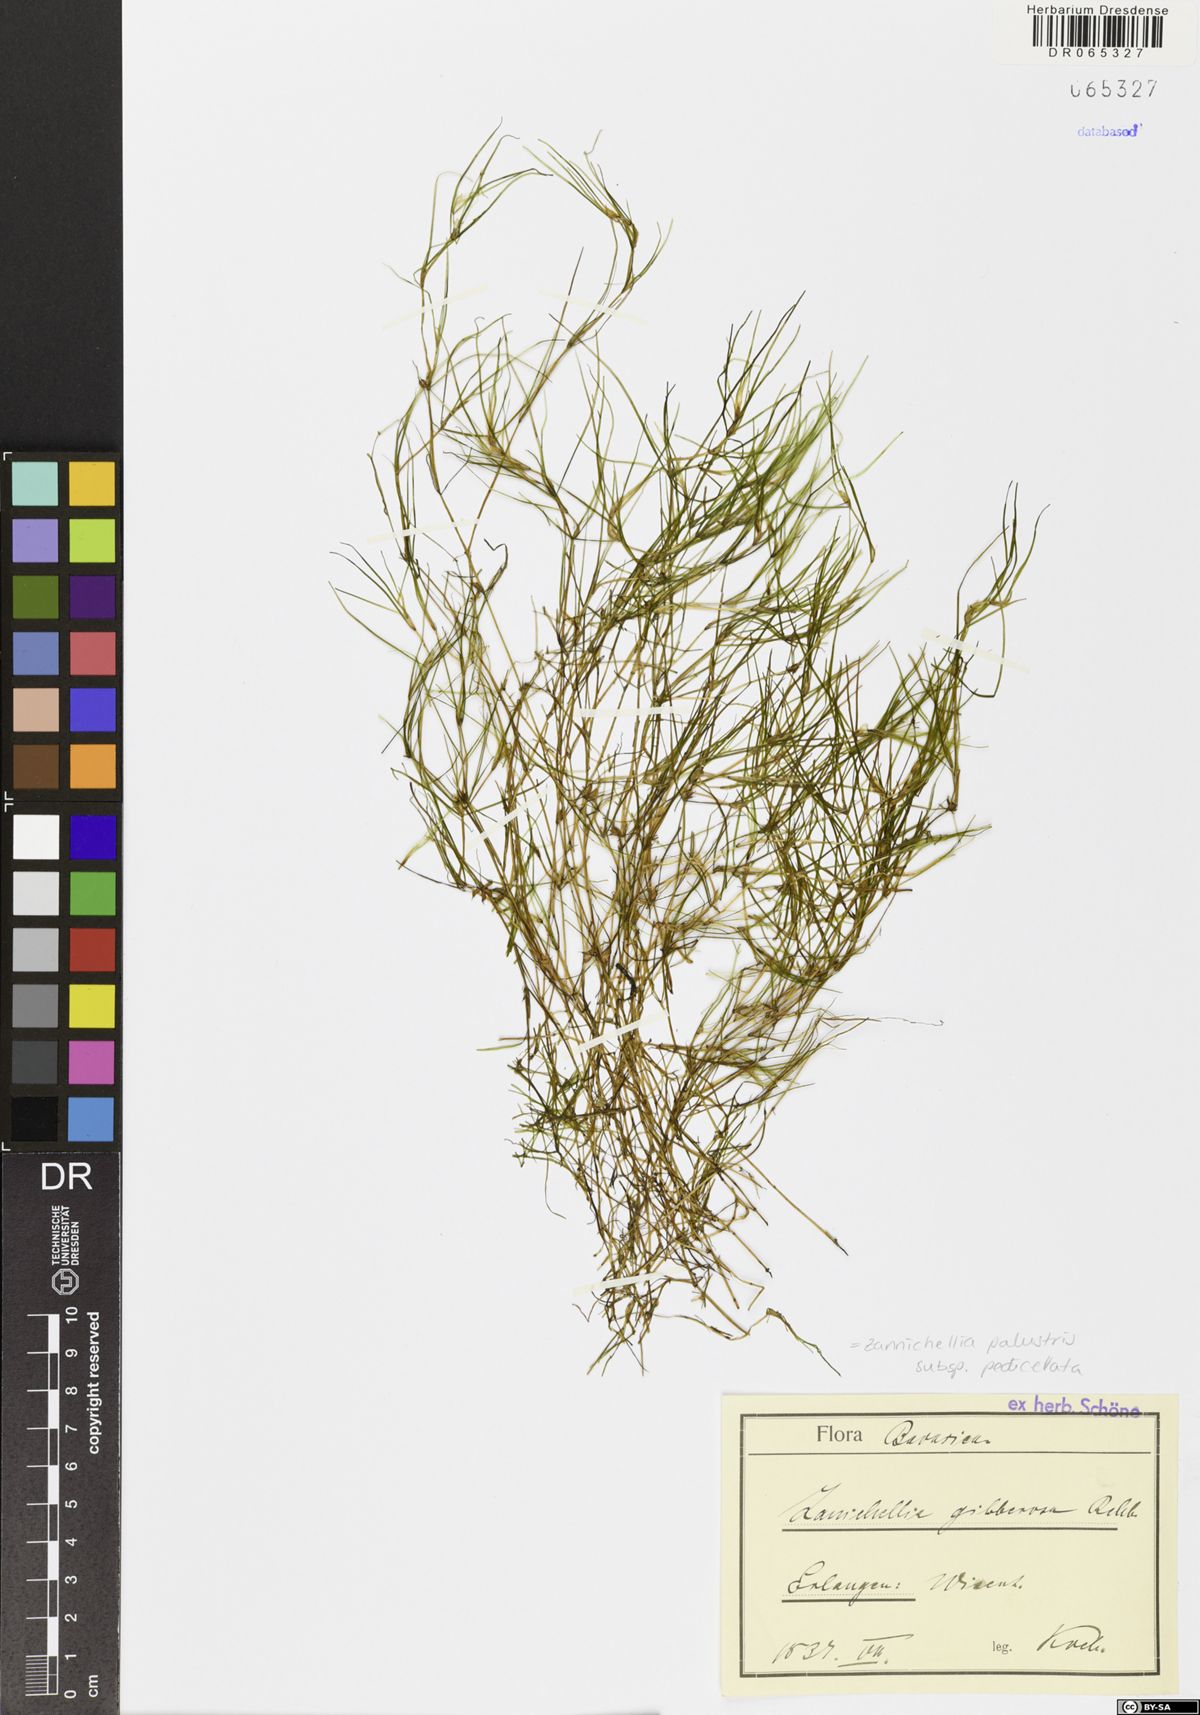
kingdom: Plantae
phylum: Tracheophyta
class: Liliopsida
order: Alismatales
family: Potamogetonaceae
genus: Zannichellia
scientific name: Zannichellia palustris
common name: Horned pondweed
